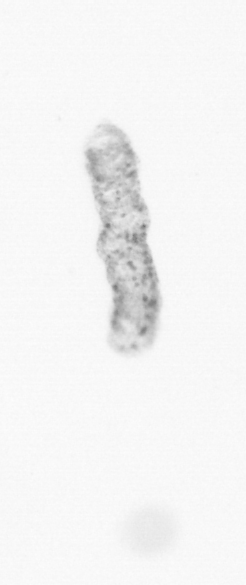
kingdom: Chromista
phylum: Ochrophyta
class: Bacillariophyceae
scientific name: Bacillariophyceae
